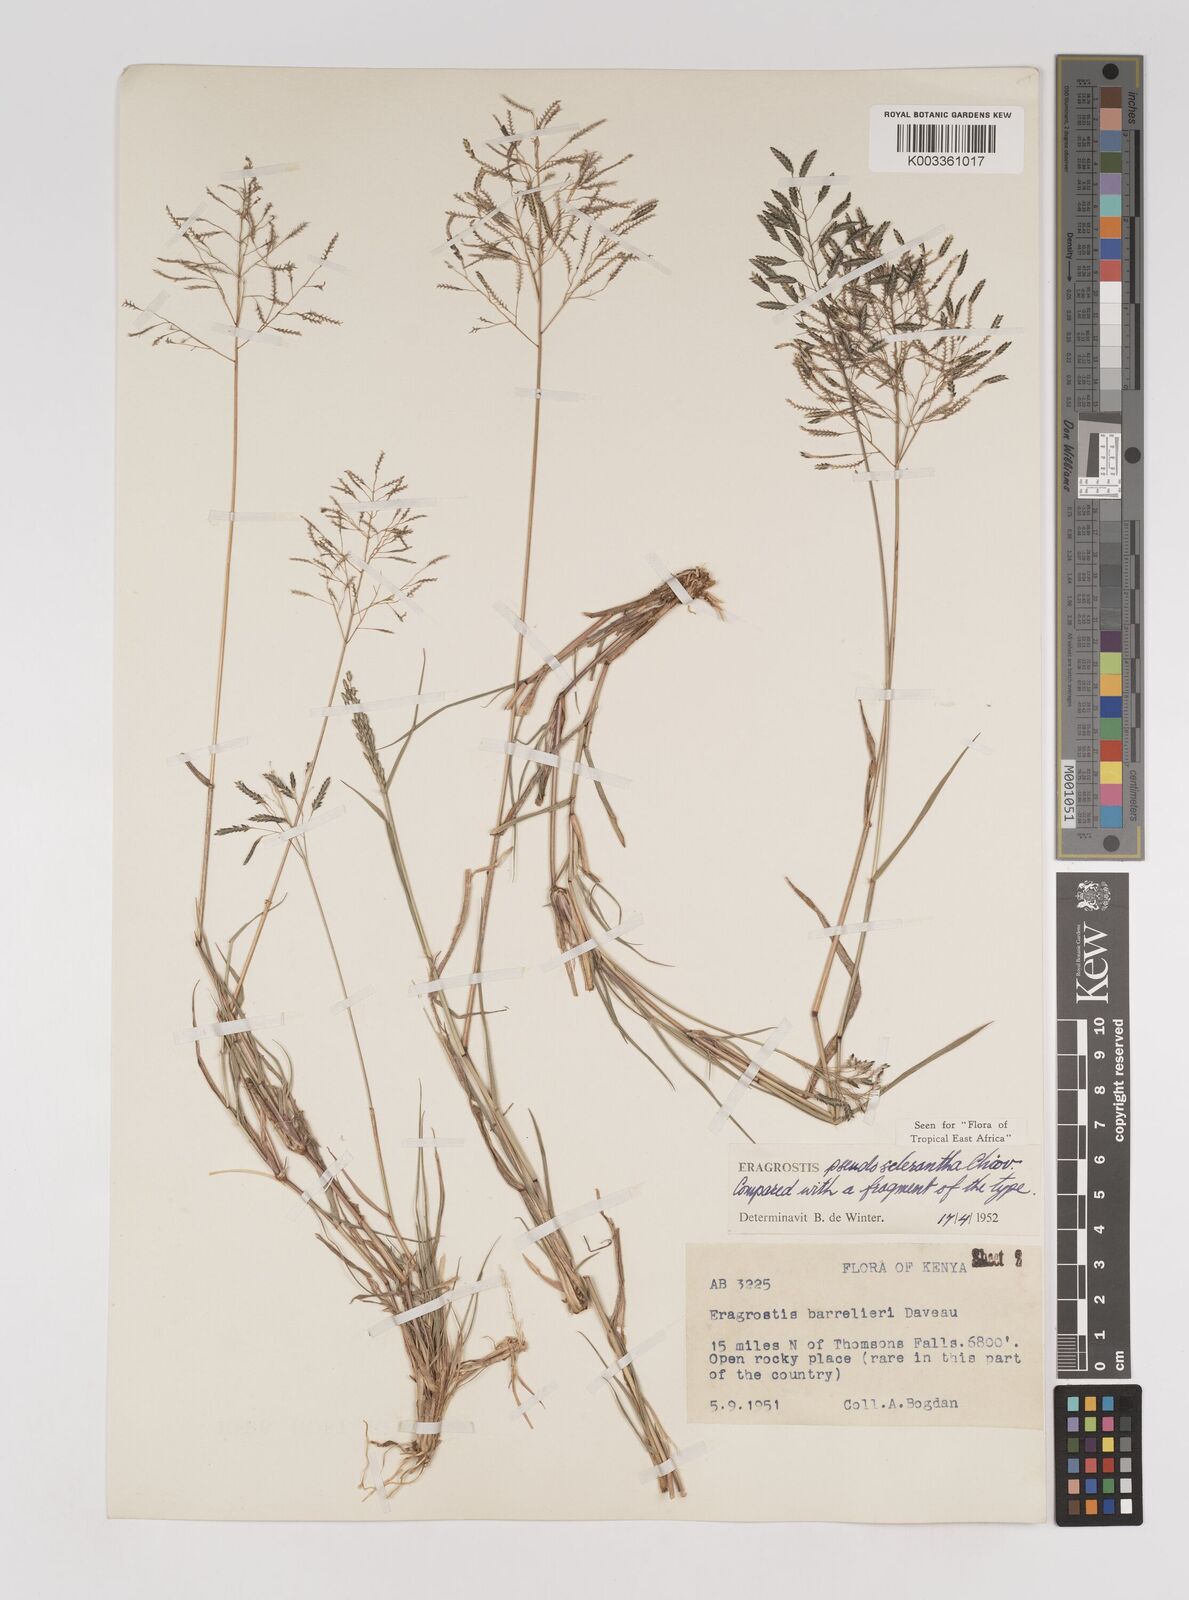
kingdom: Plantae
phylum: Tracheophyta
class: Liliopsida
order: Poales
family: Poaceae
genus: Eragrostis
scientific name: Eragrostis patentipilosa
